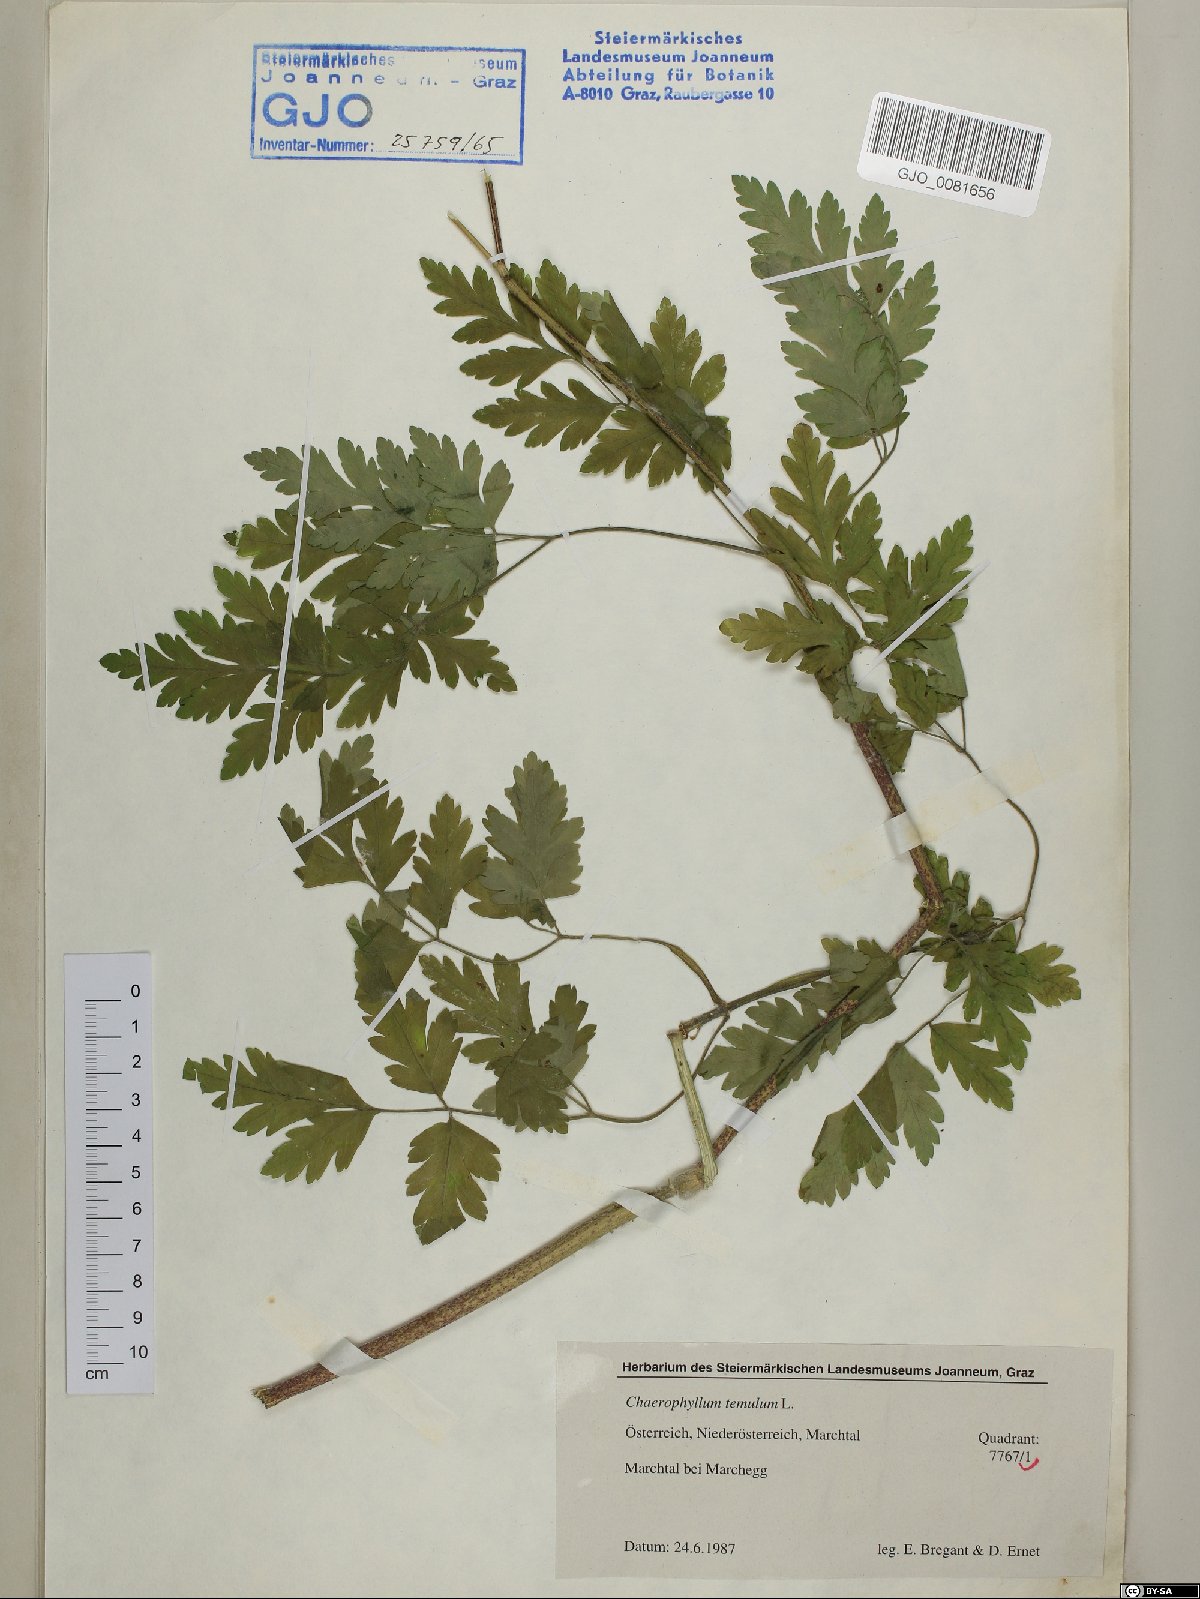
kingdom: Plantae
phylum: Tracheophyta
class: Magnoliopsida
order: Apiales
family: Apiaceae
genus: Chaerophyllum
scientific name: Chaerophyllum temulum
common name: Rough chervil
